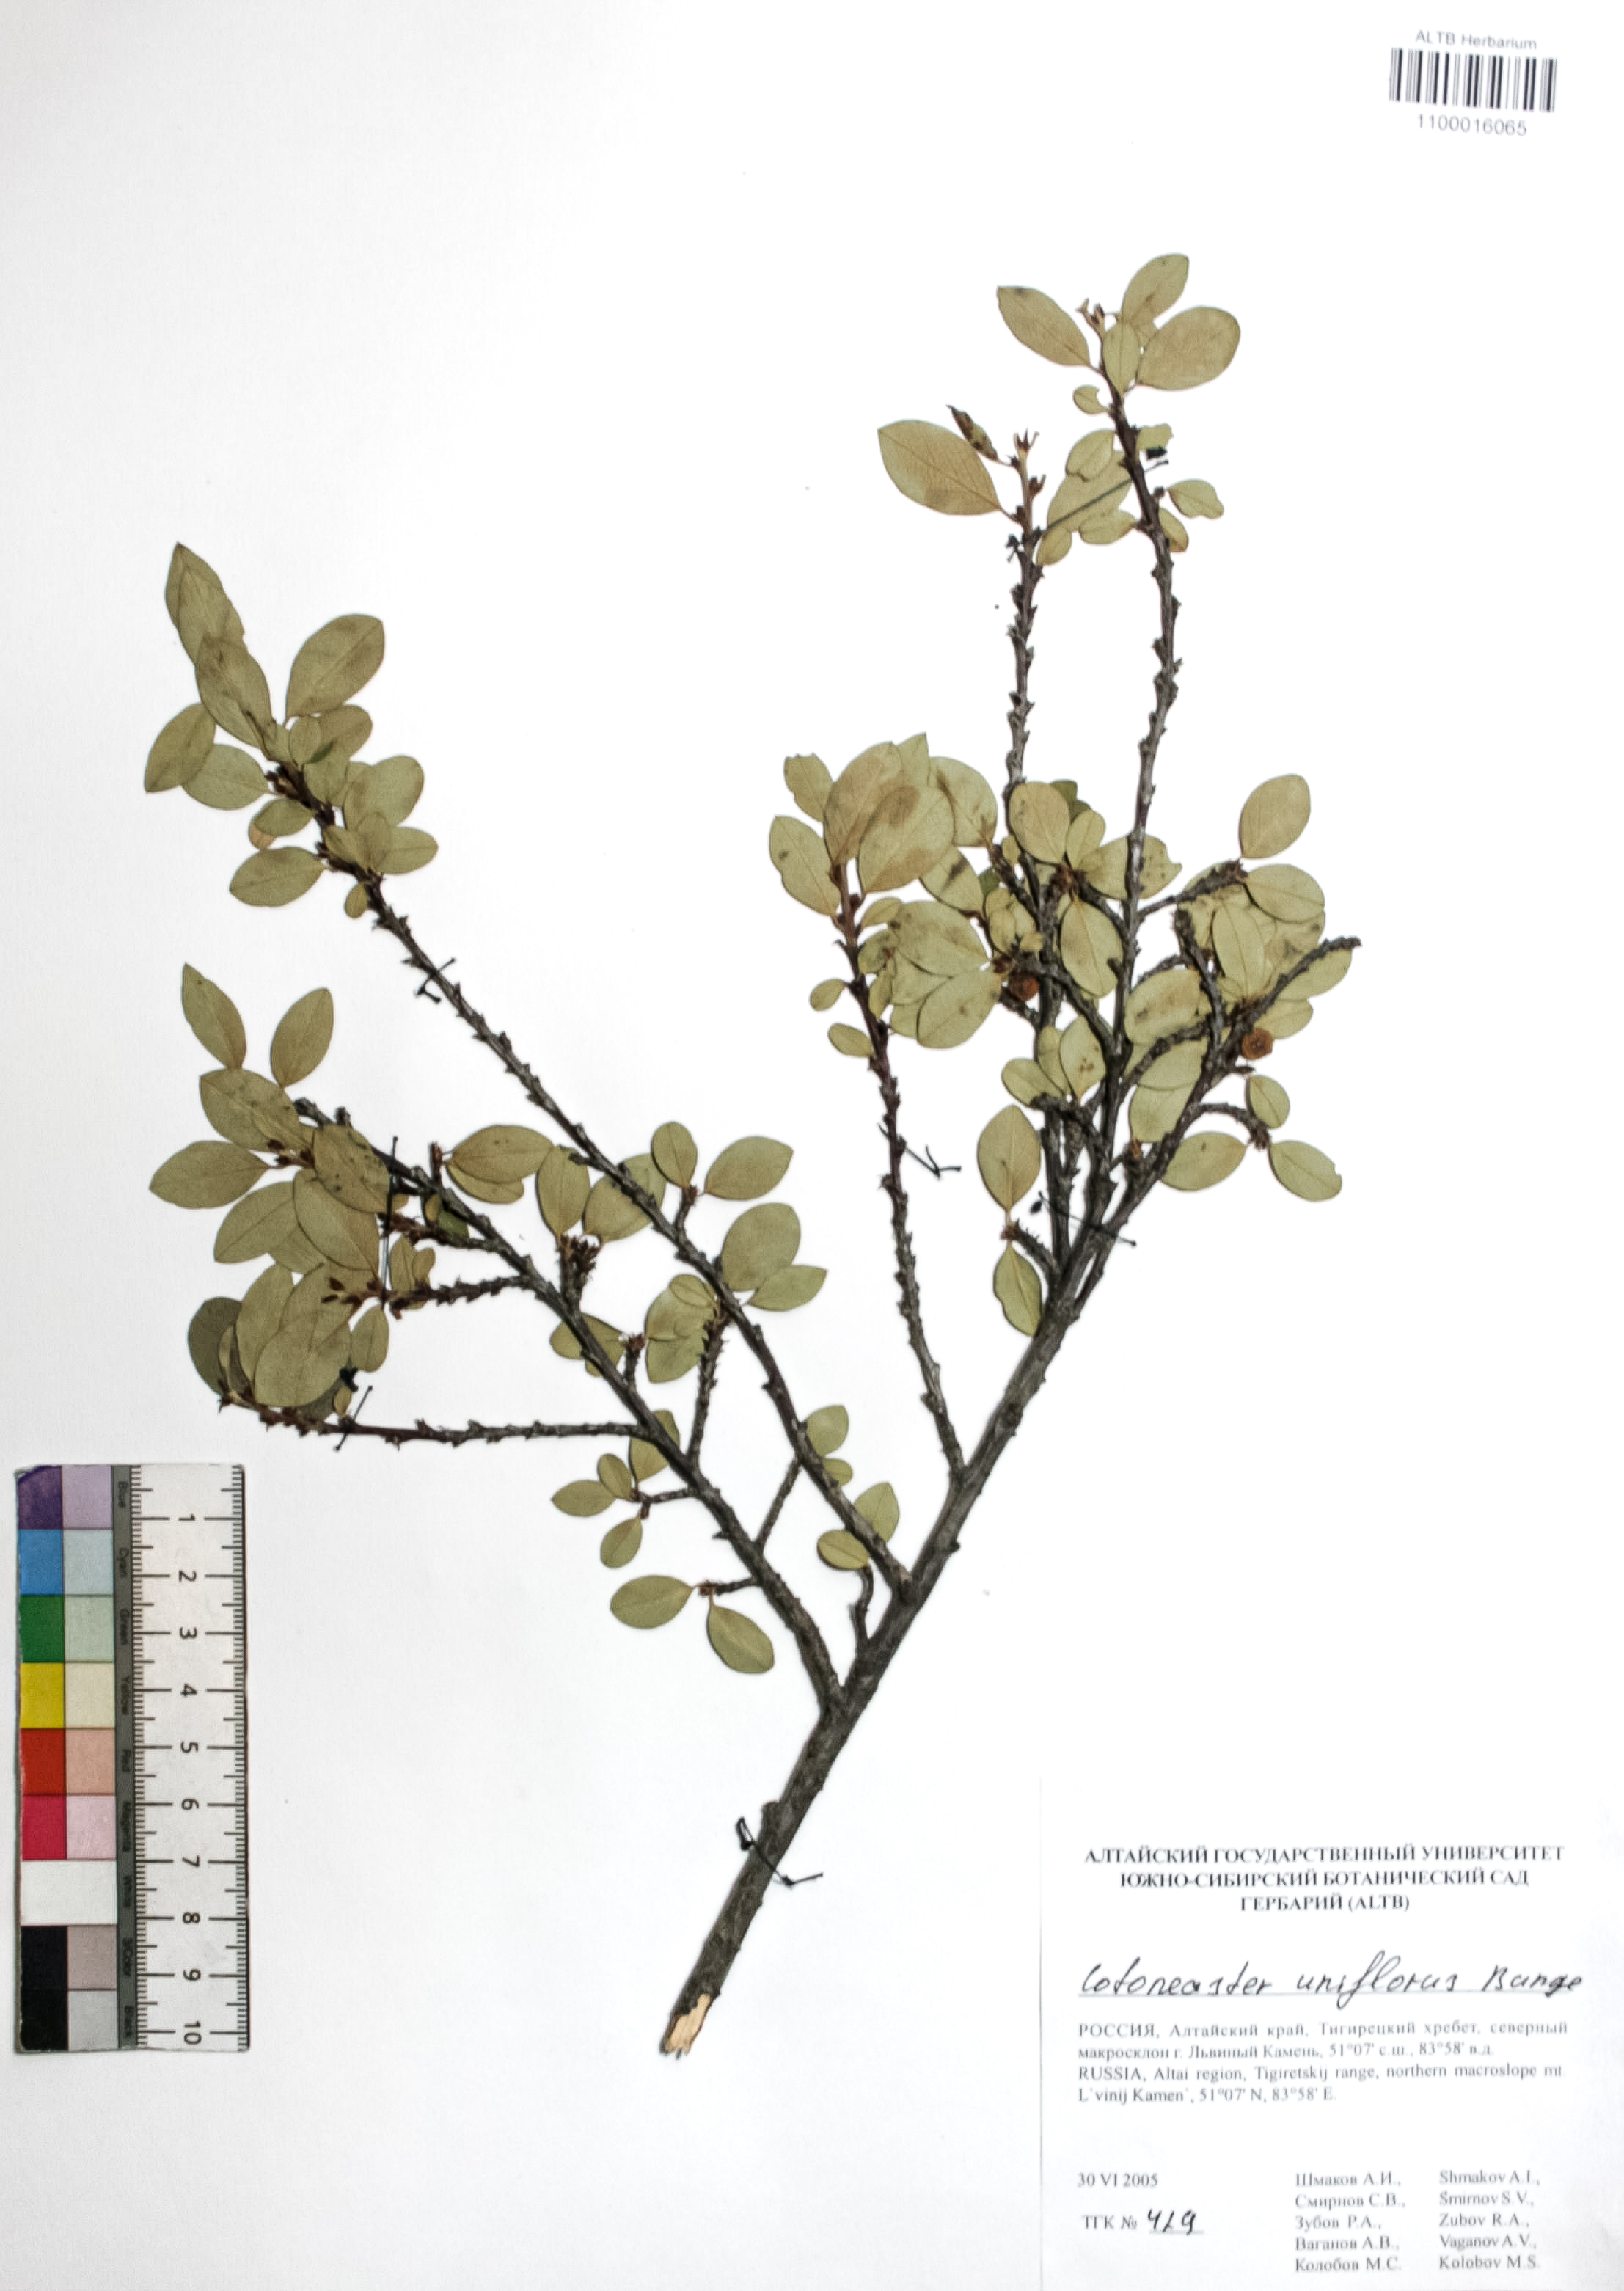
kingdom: Plantae
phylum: Tracheophyta
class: Magnoliopsida
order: Rosales
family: Rosaceae
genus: Cotoneaster
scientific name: Cotoneaster uniflorus
